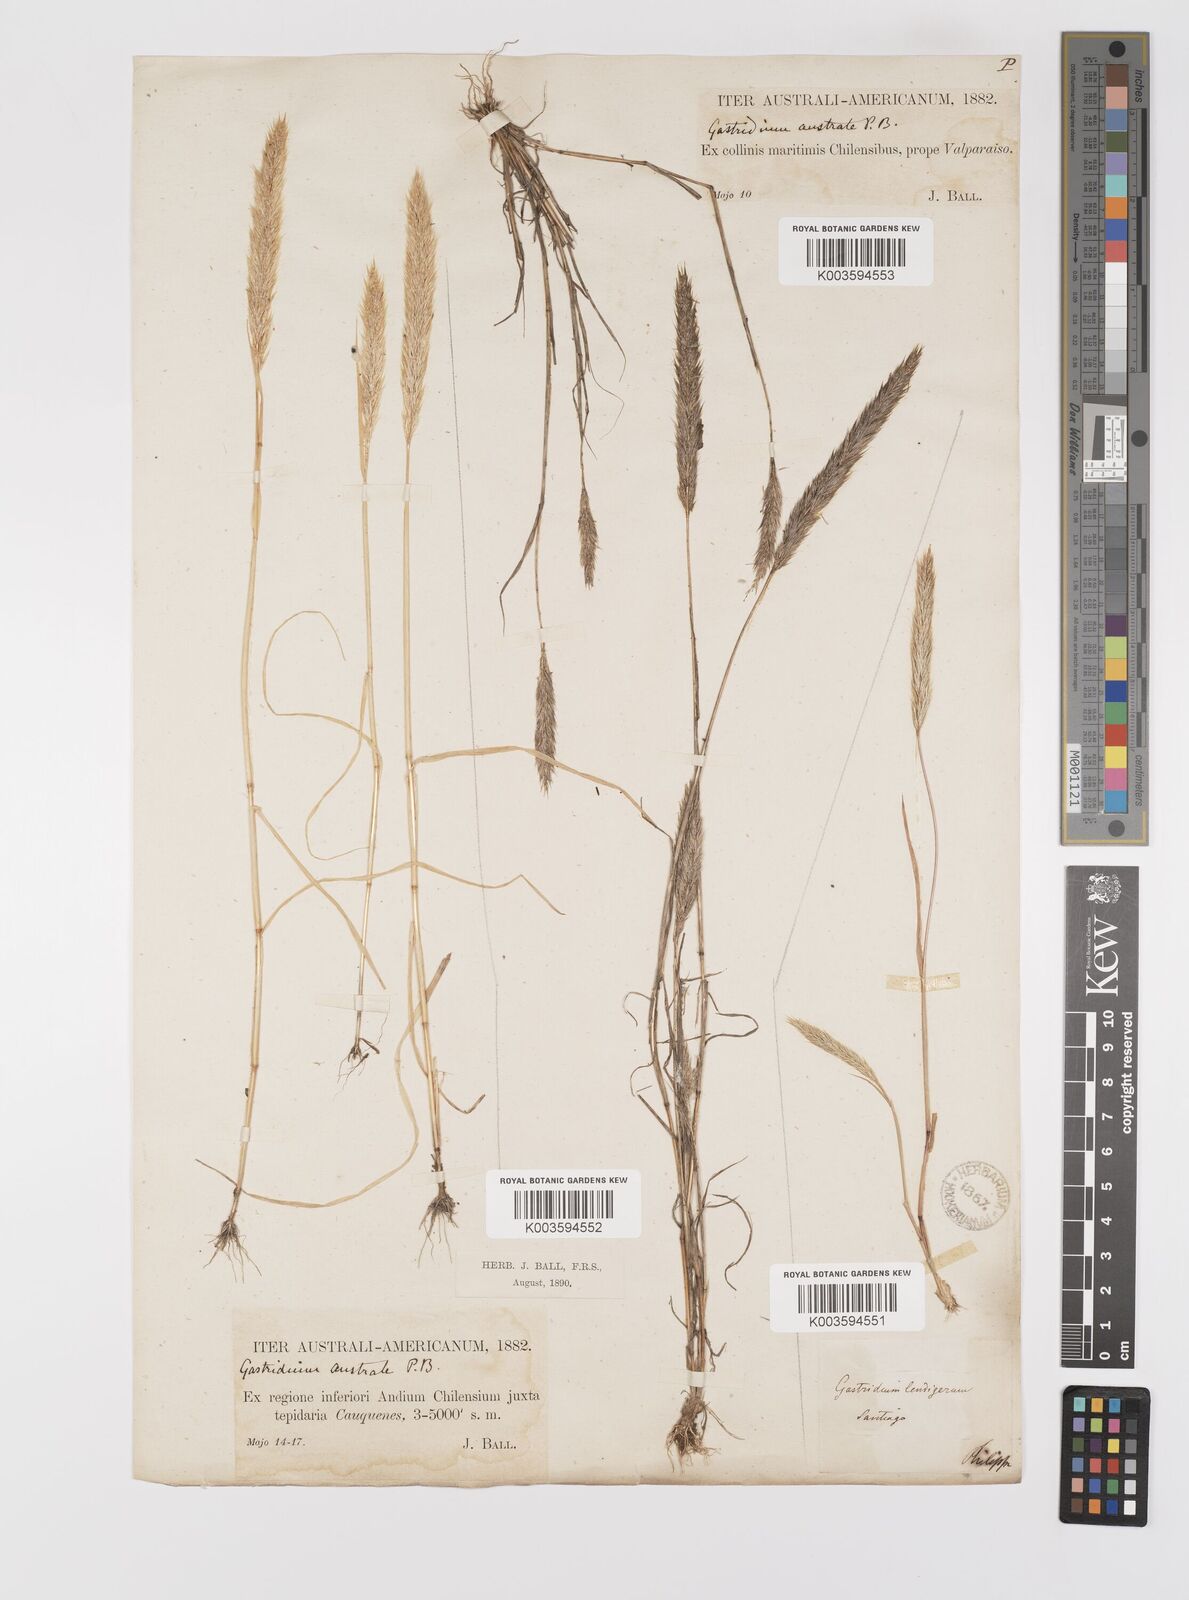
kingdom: Plantae
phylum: Tracheophyta
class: Liliopsida
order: Poales
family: Poaceae
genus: Gastridium
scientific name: Gastridium phleoides
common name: Nit grass
